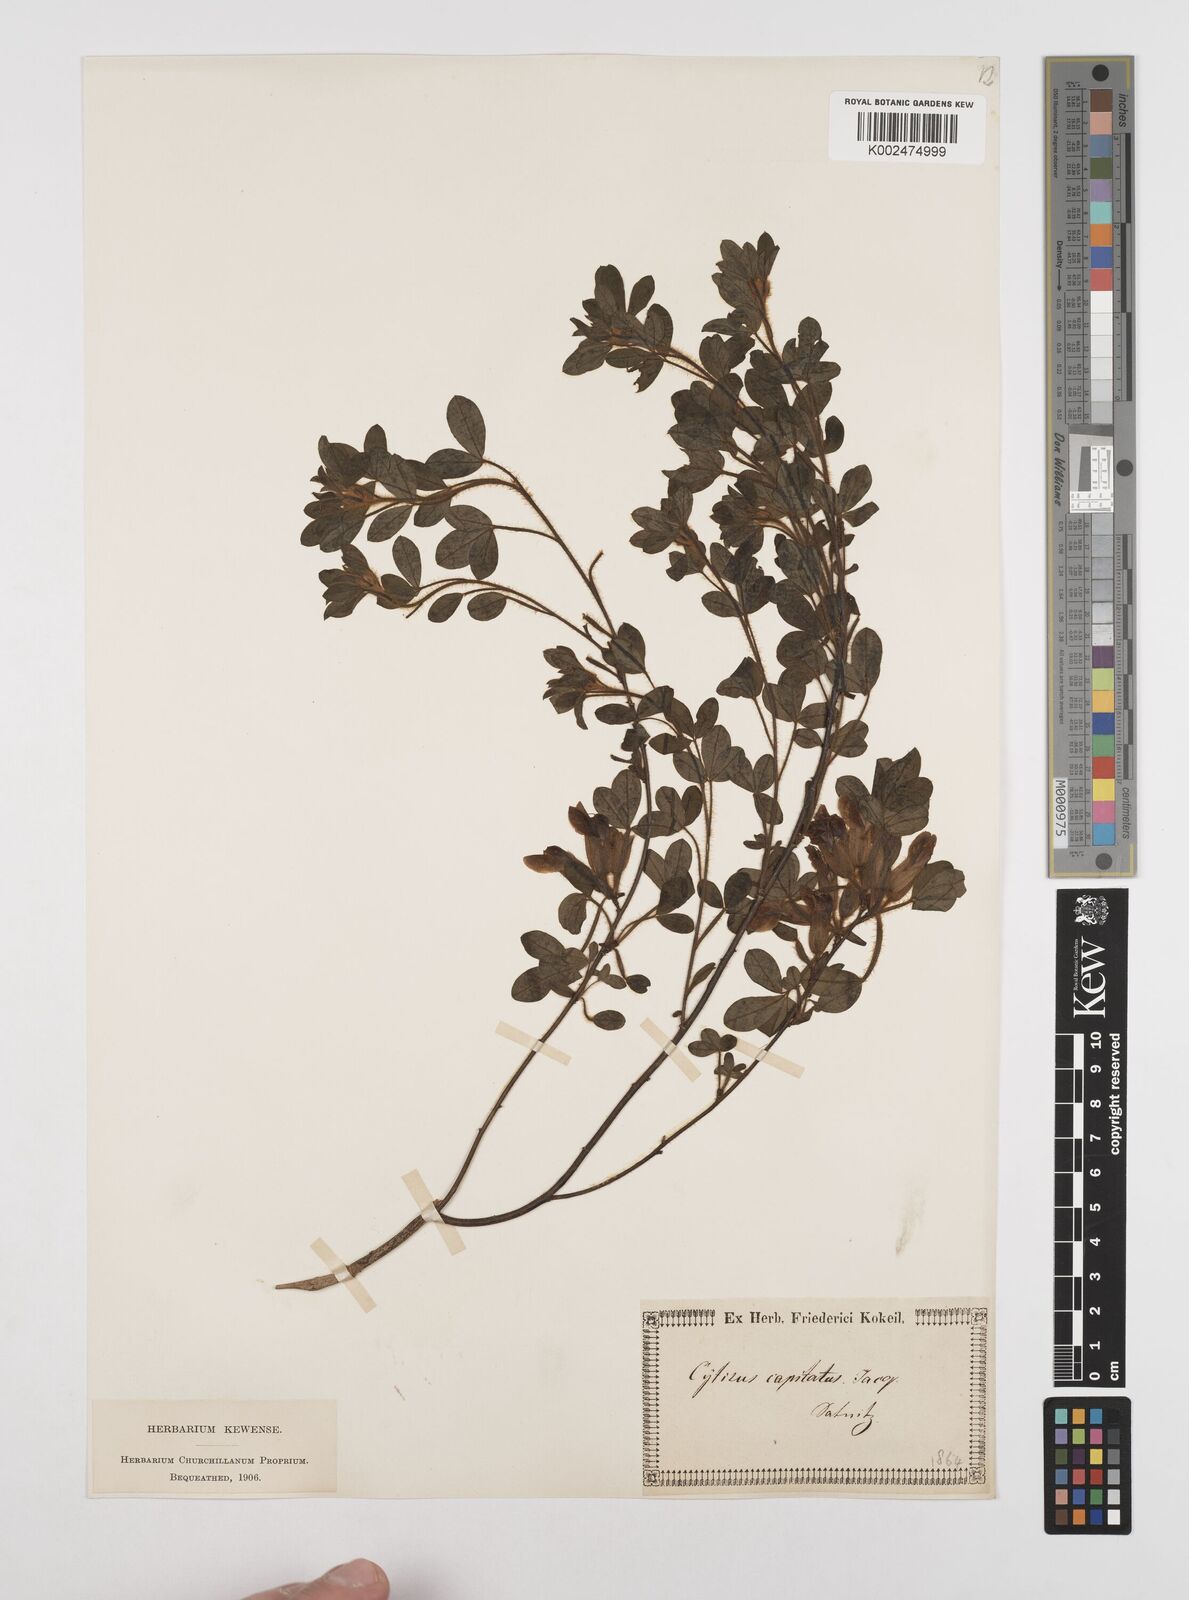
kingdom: Plantae
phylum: Tracheophyta
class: Magnoliopsida
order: Fabales
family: Fabaceae
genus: Chamaecytisus
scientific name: Chamaecytisus hirsutus
